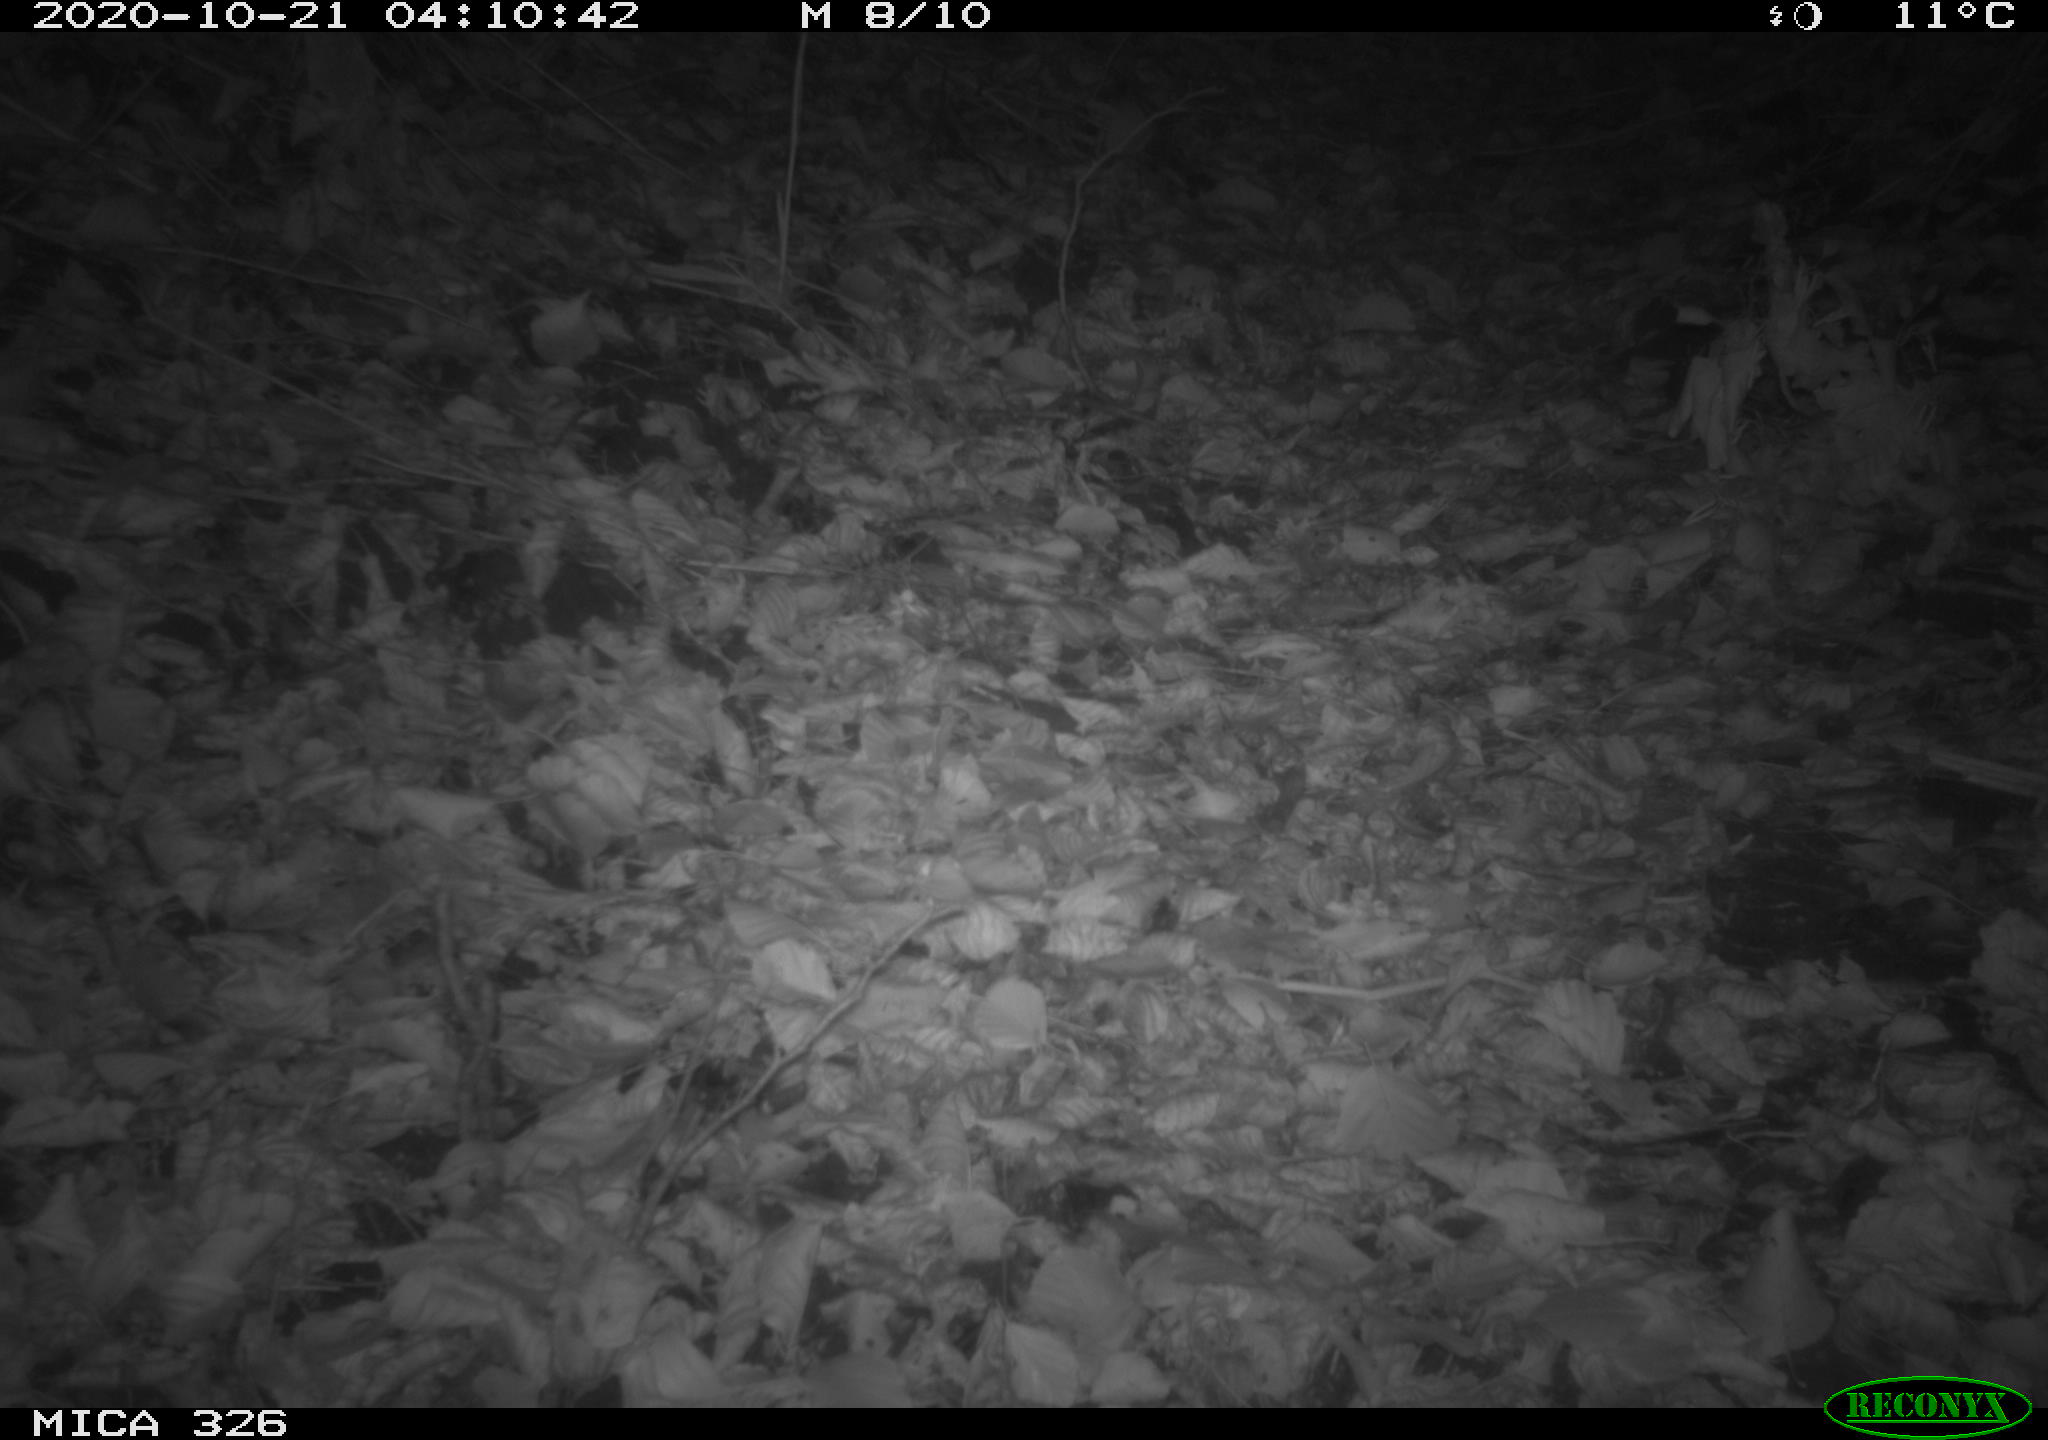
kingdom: Animalia
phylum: Chordata
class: Mammalia
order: Rodentia
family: Muridae
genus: Rattus
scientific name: Rattus norvegicus
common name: Brown rat
